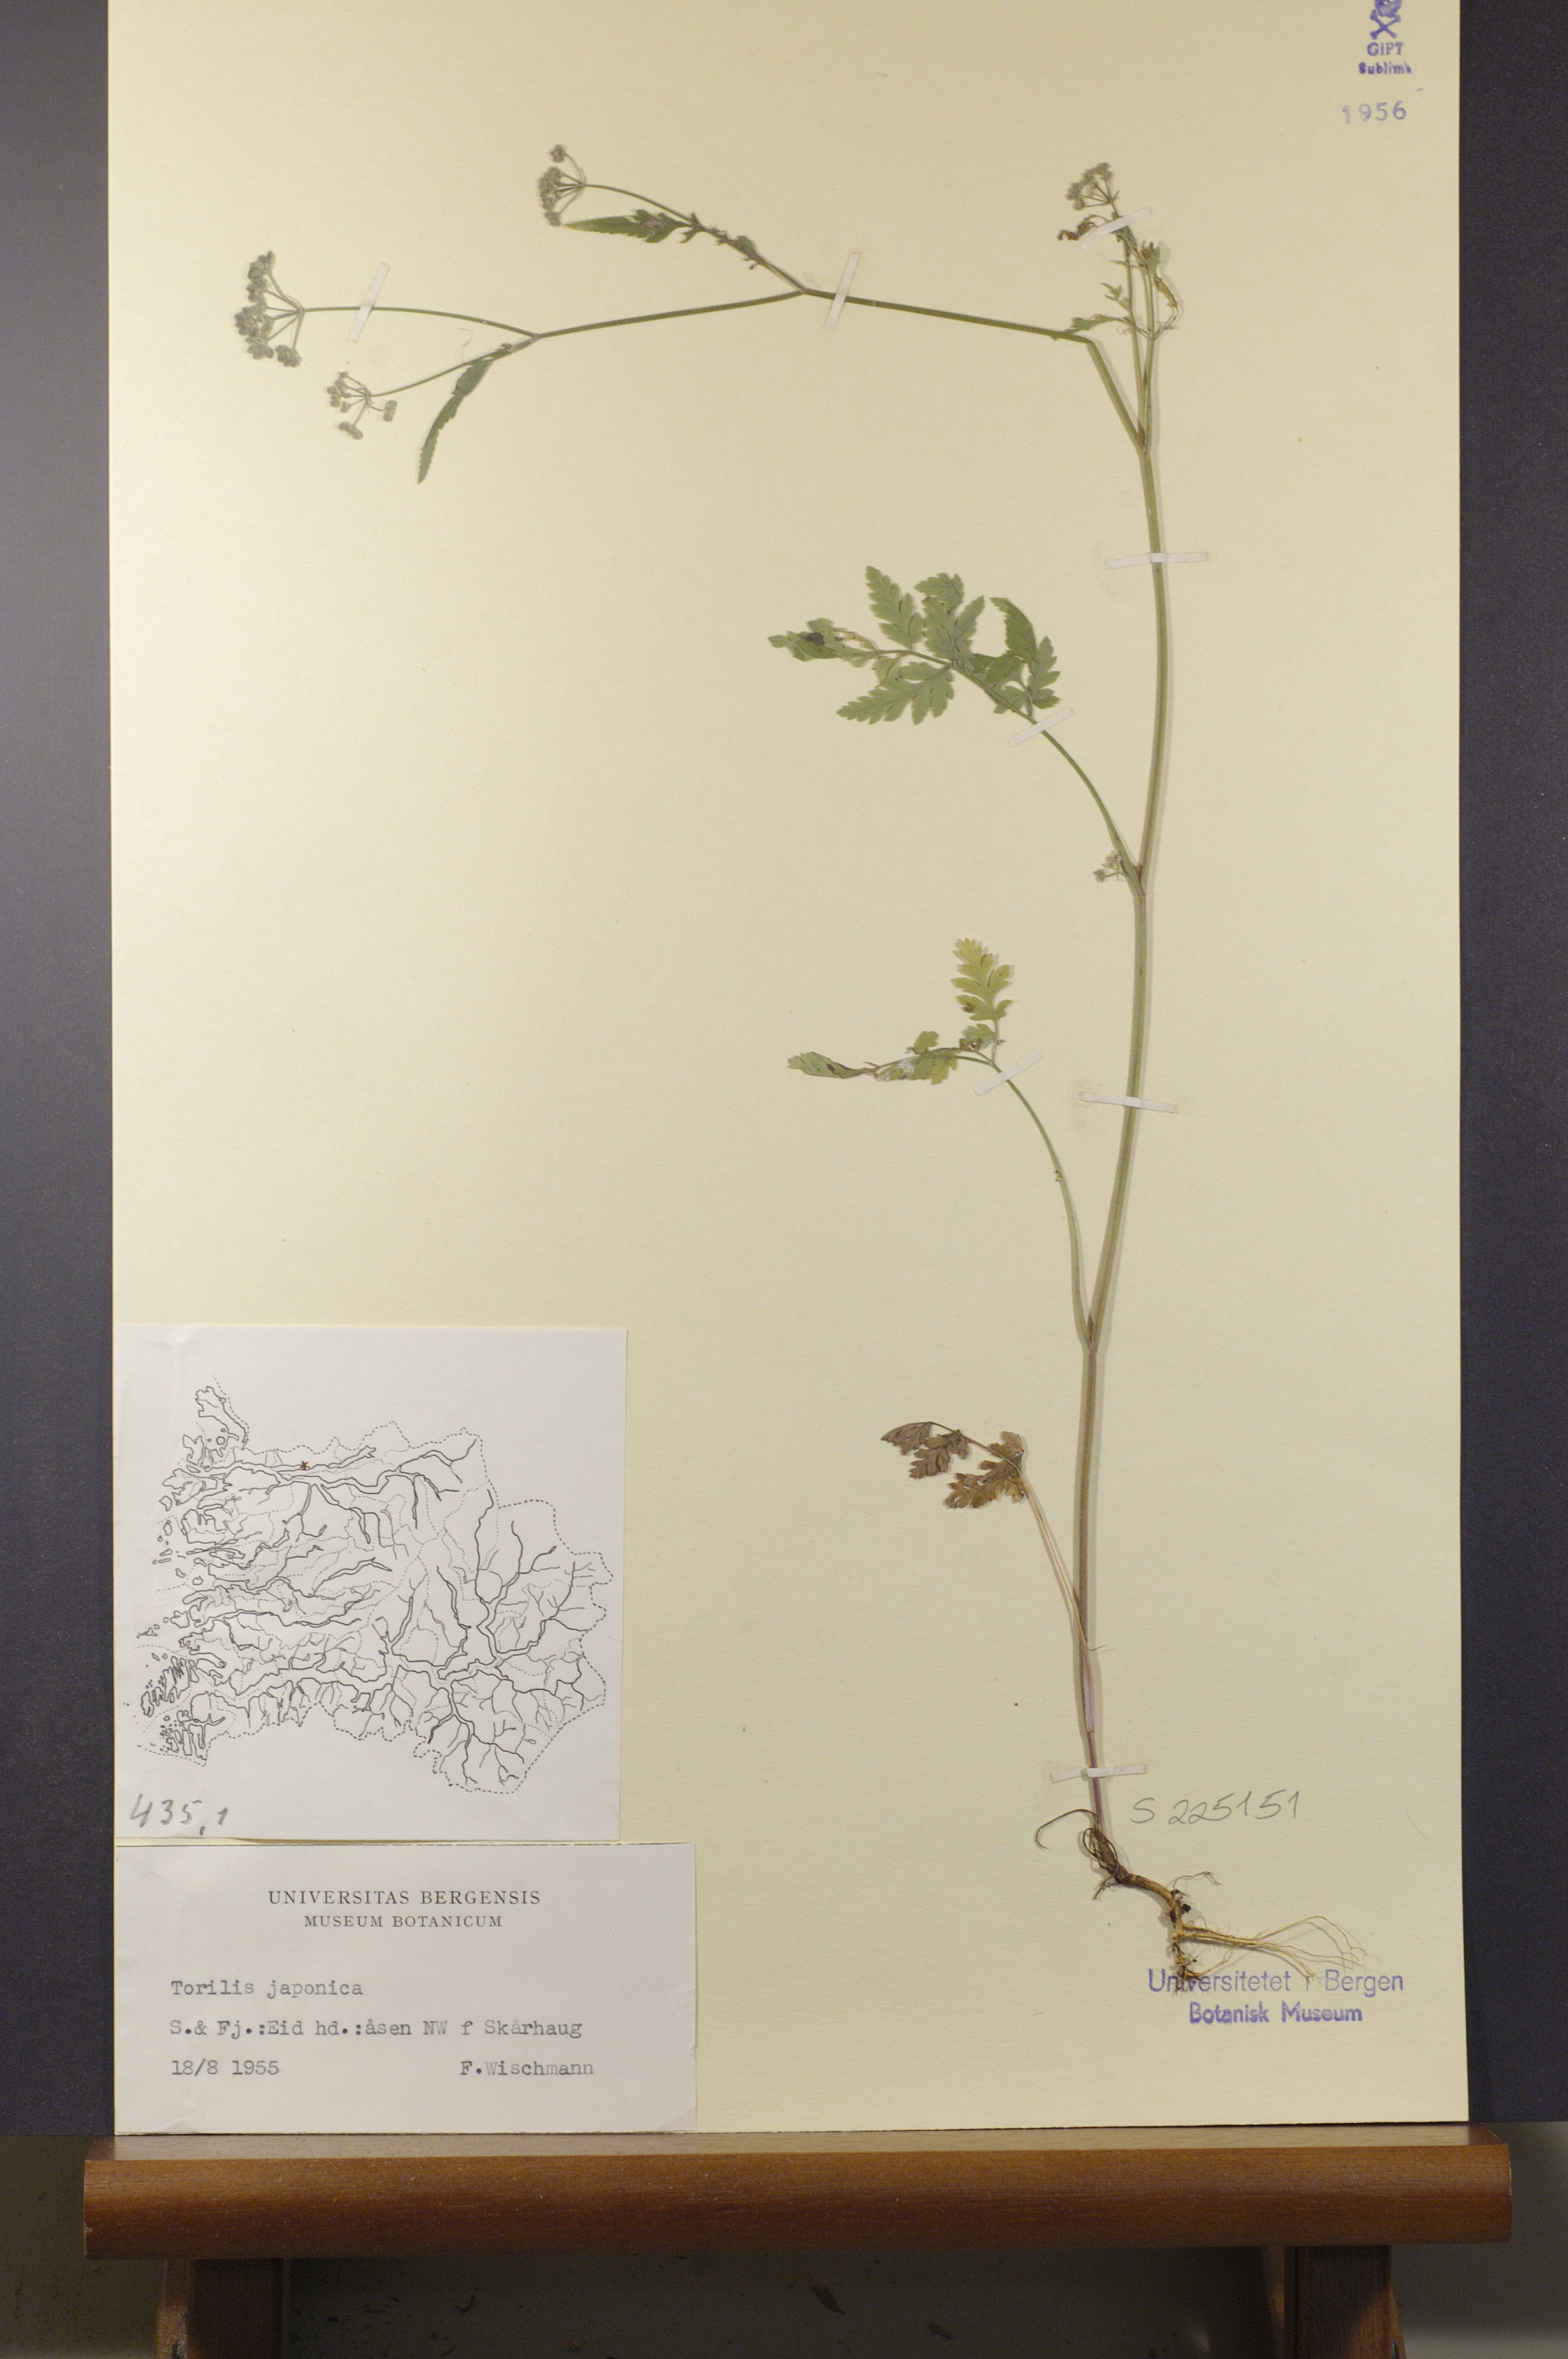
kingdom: Plantae
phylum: Tracheophyta
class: Magnoliopsida
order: Apiales
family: Apiaceae
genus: Torilis
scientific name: Torilis japonica
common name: Upright hedge-parsley
